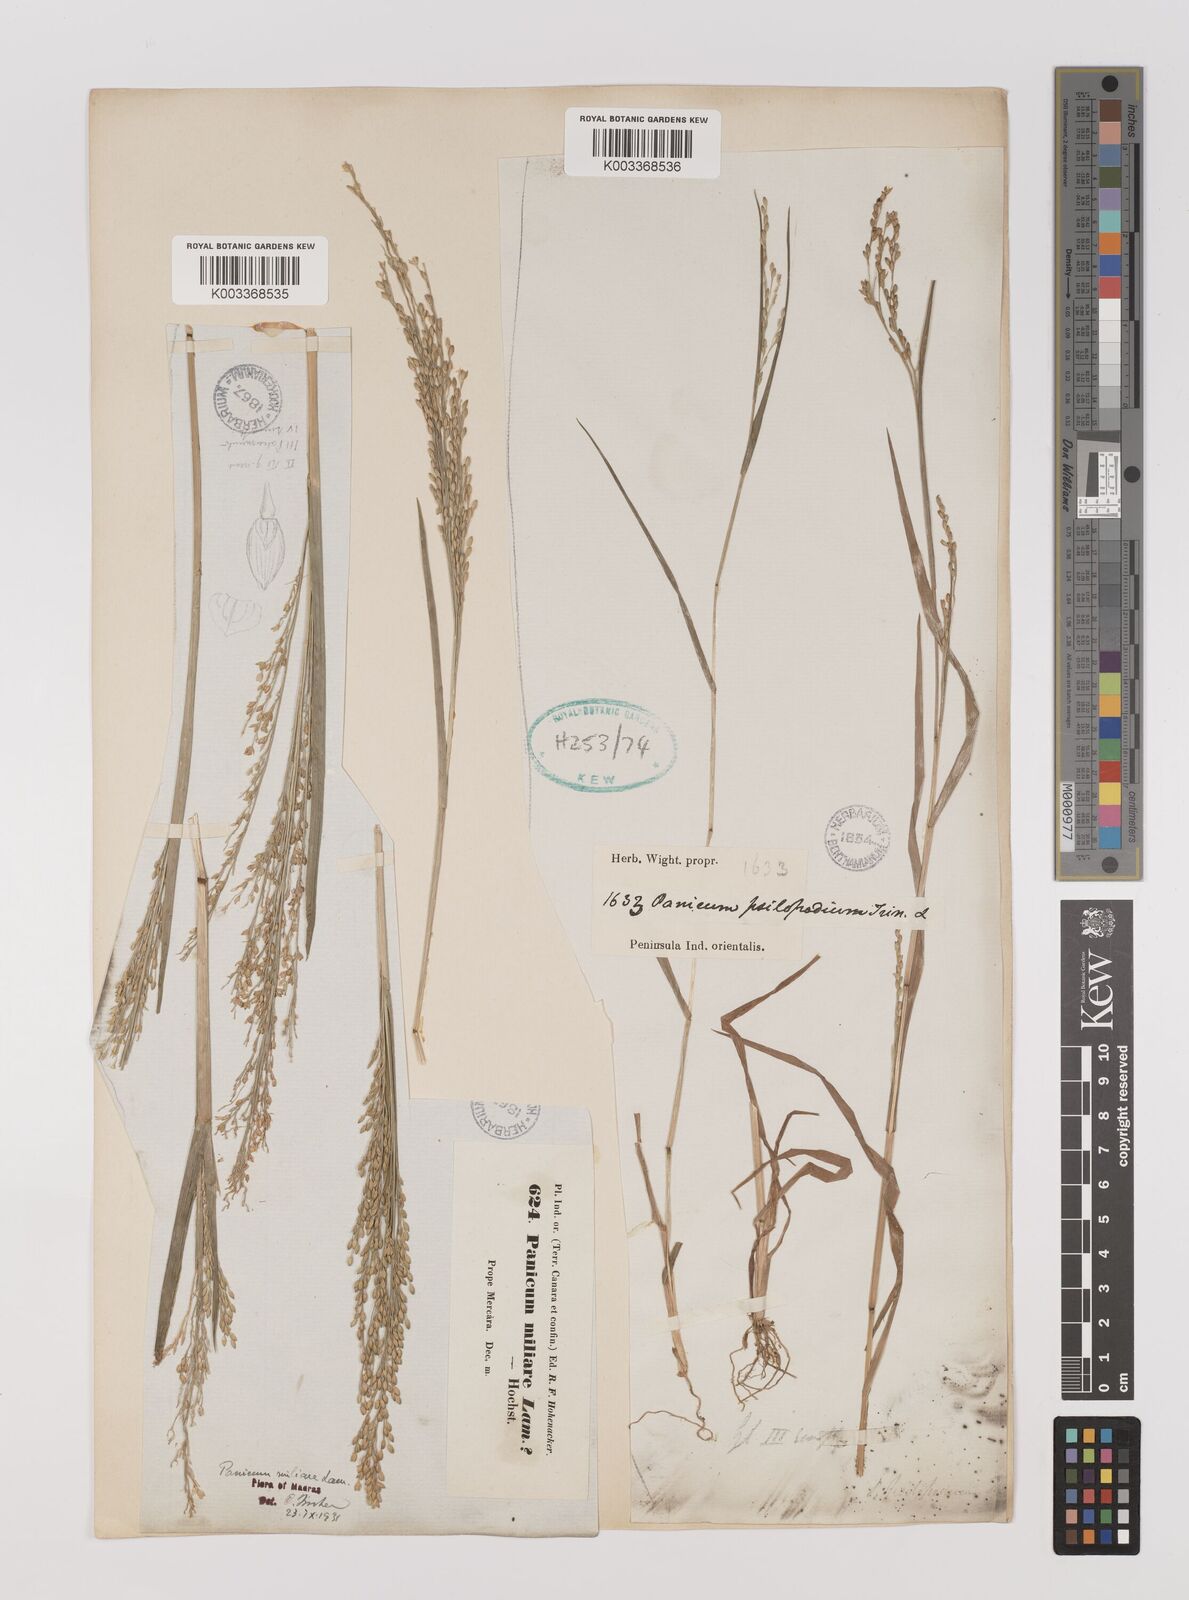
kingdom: Plantae
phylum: Tracheophyta
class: Liliopsida
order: Poales
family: Poaceae
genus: Panicum
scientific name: Panicum sumatrense
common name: Little millet
